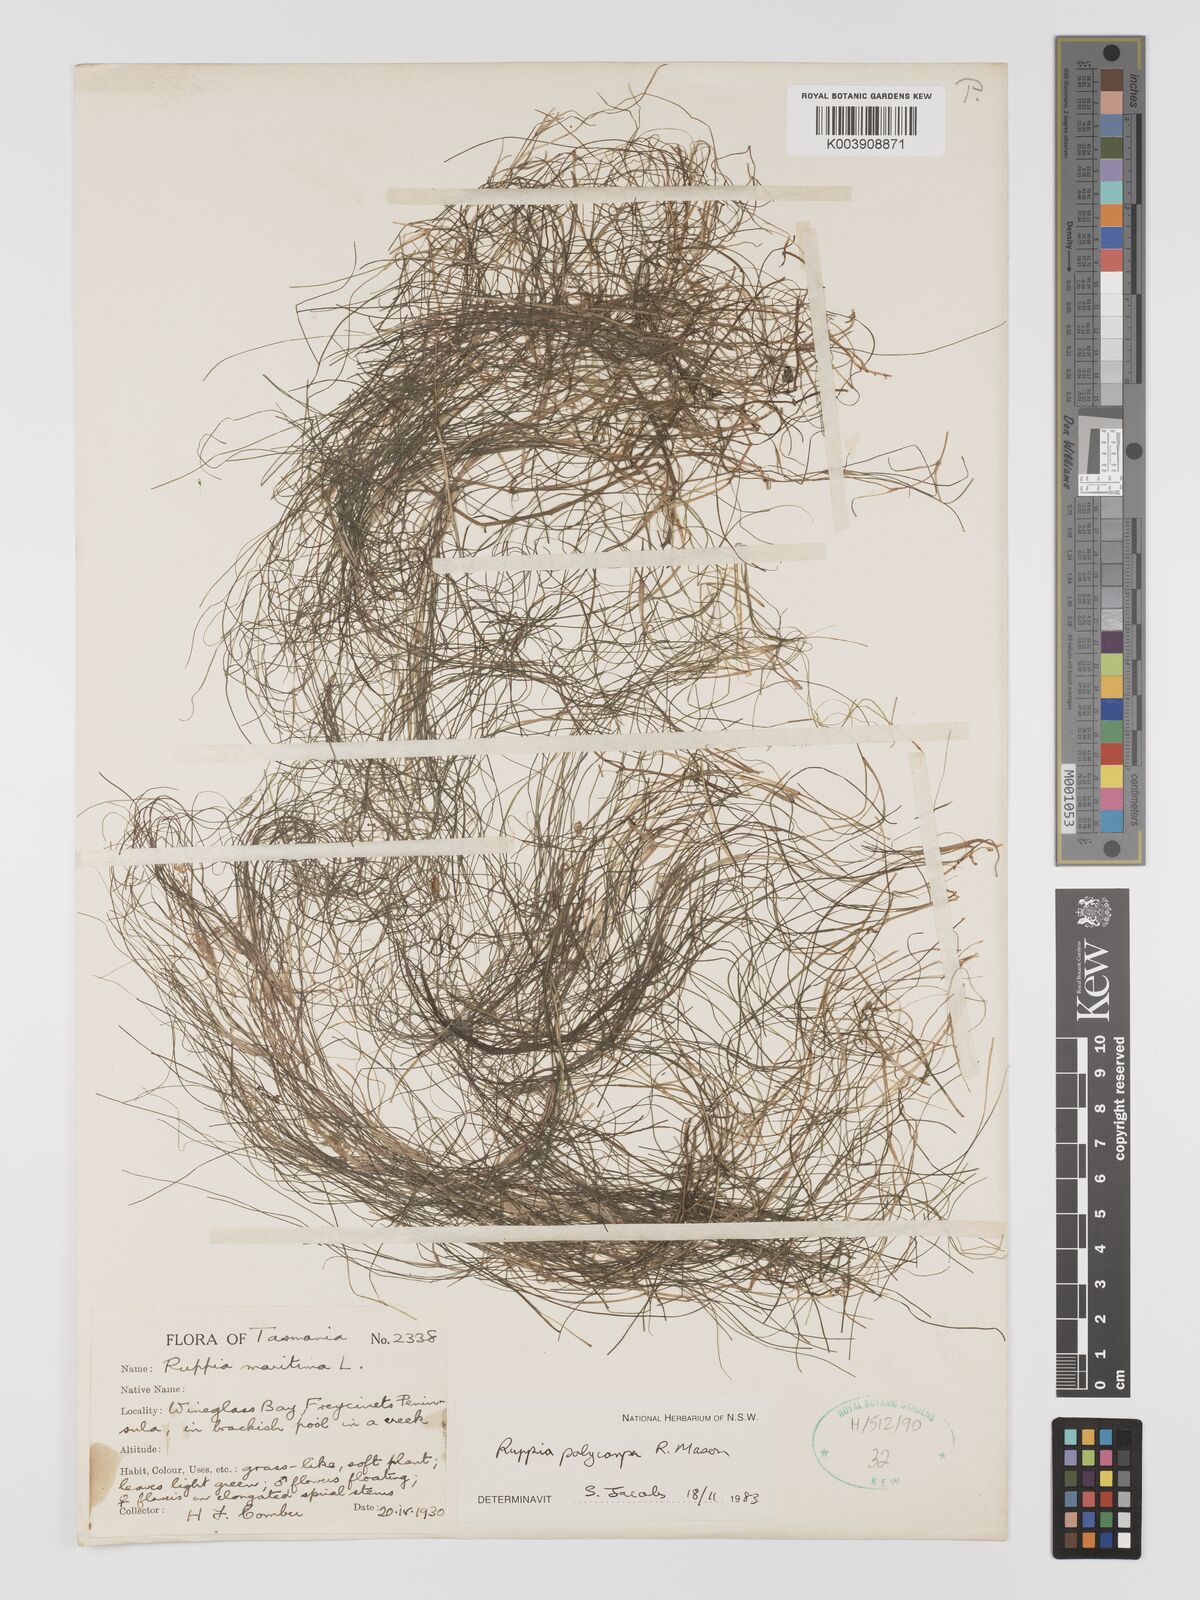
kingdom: Plantae
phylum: Tracheophyta
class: Liliopsida
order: Alismatales
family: Ruppiaceae
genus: Ruppia
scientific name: Ruppia polycarpa
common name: Species code: rp
